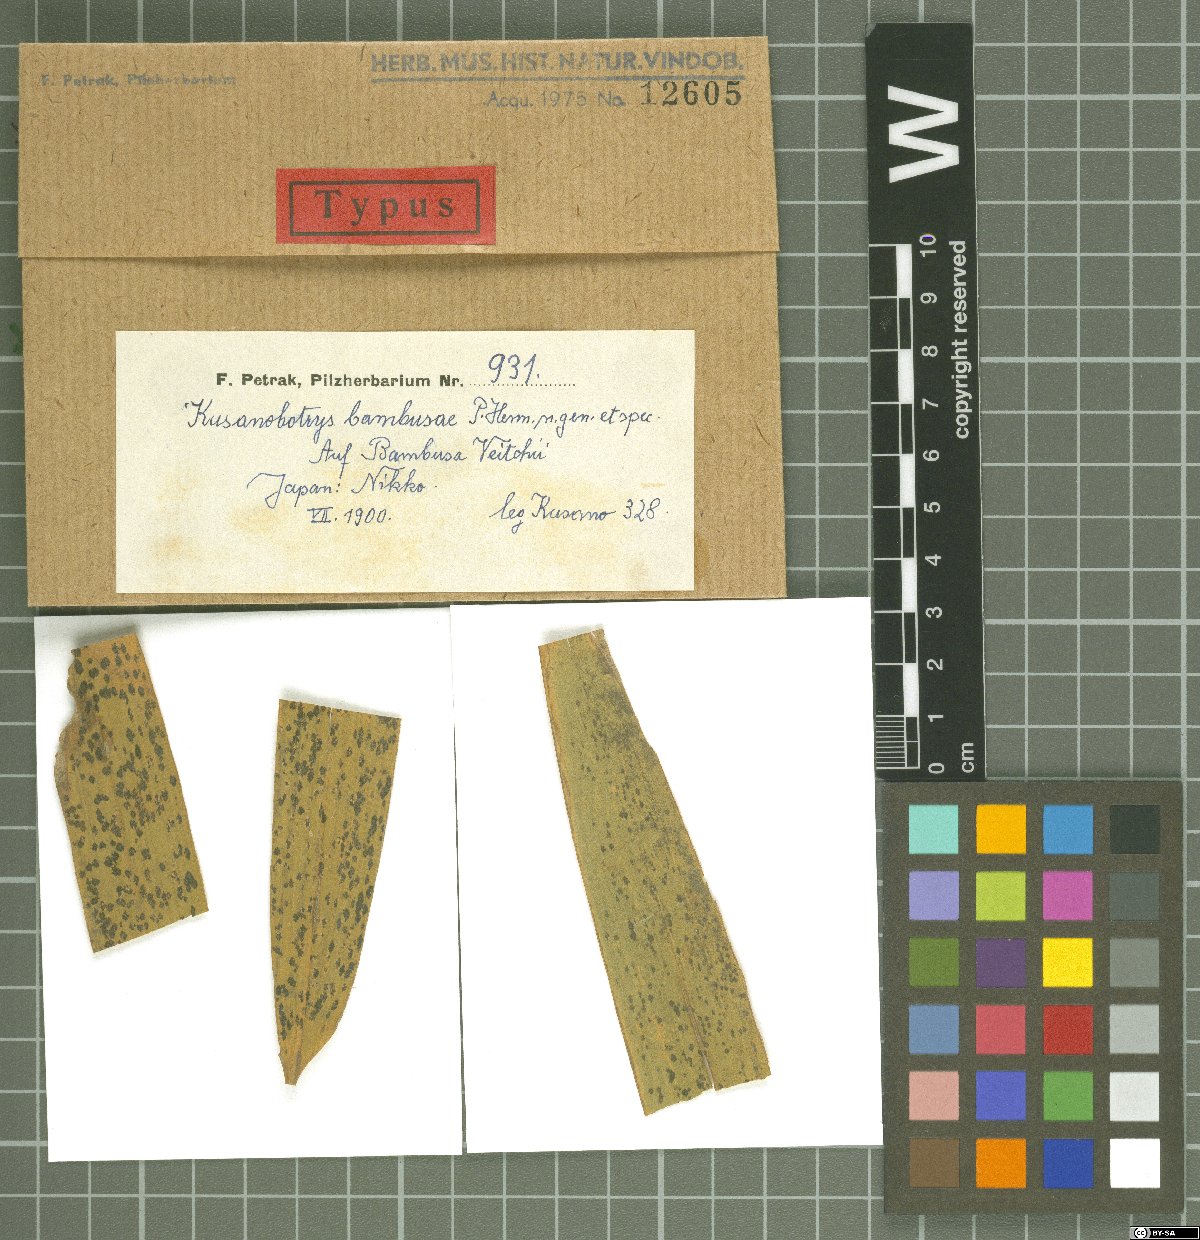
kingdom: Fungi
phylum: Ascomycota
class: Dothideomycetes
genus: Kusanobotrys
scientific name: Kusanobotrys bambusae
